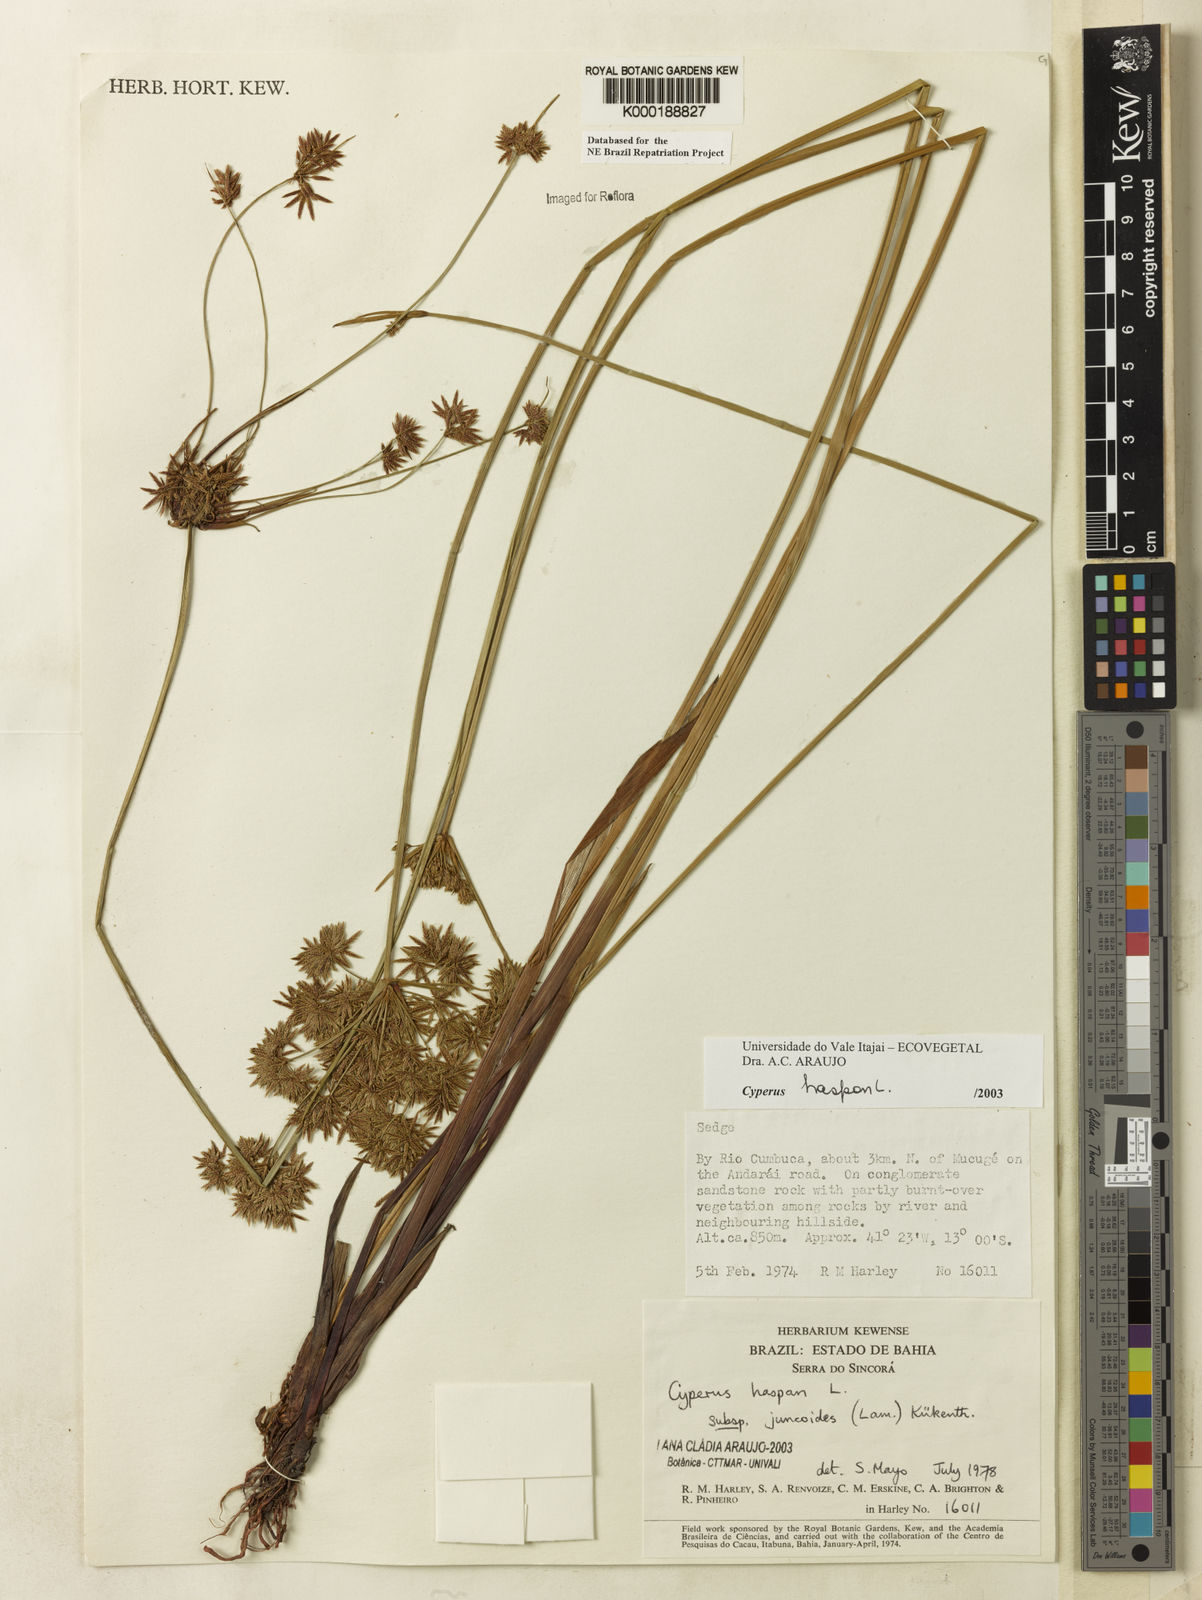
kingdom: Plantae
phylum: Tracheophyta
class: Liliopsida
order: Poales
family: Cyperaceae
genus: Cyperus
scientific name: Cyperus haspan
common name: Haspan flatsedge
